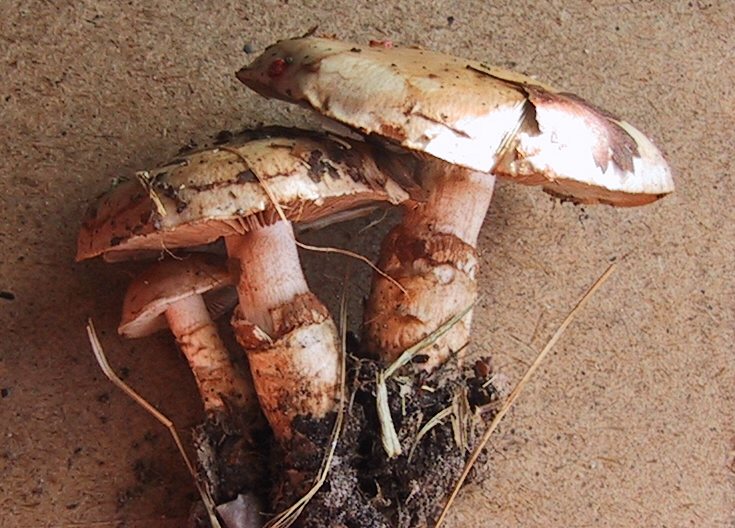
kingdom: Fungi
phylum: Basidiomycota
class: Agaricomycetes
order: Agaricales
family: Hymenogastraceae
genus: Hebeloma
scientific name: Hebeloma radicosum
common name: pælerods-tåreblad
